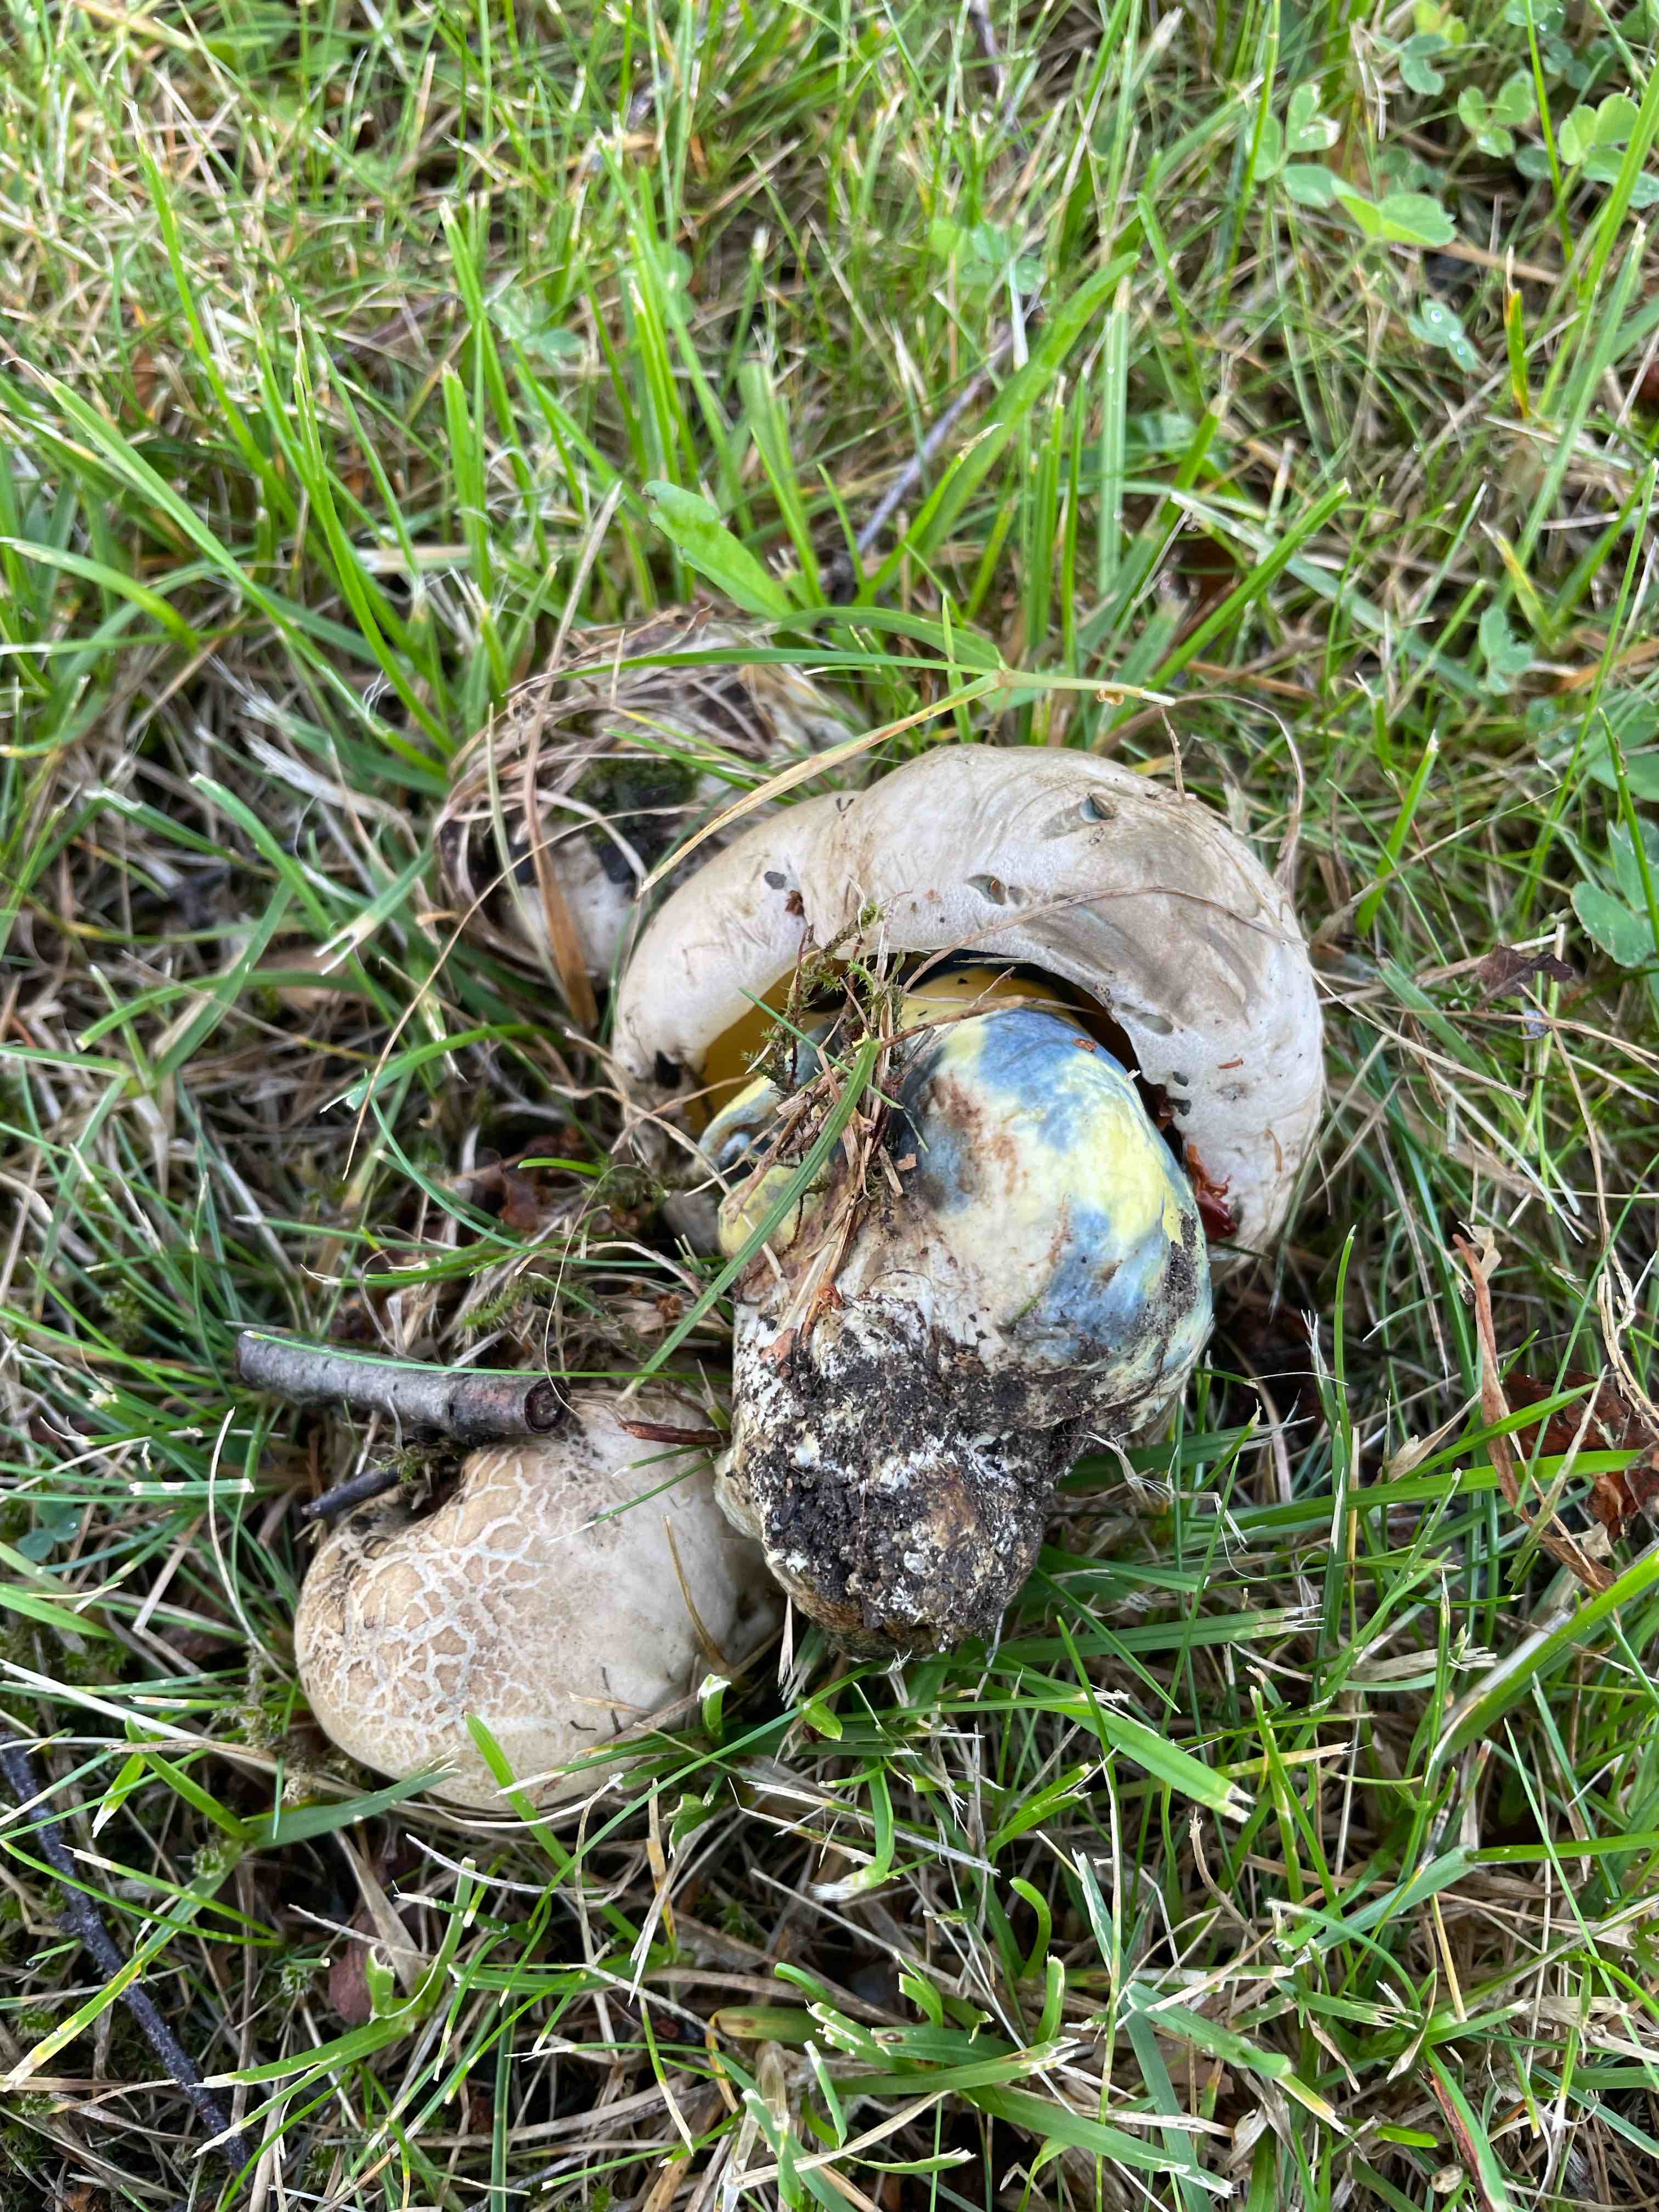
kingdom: Fungi
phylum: Basidiomycota
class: Agaricomycetes
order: Boletales
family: Boletaceae
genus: Caloboletus
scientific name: Caloboletus radicans
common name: rod-rørhat
